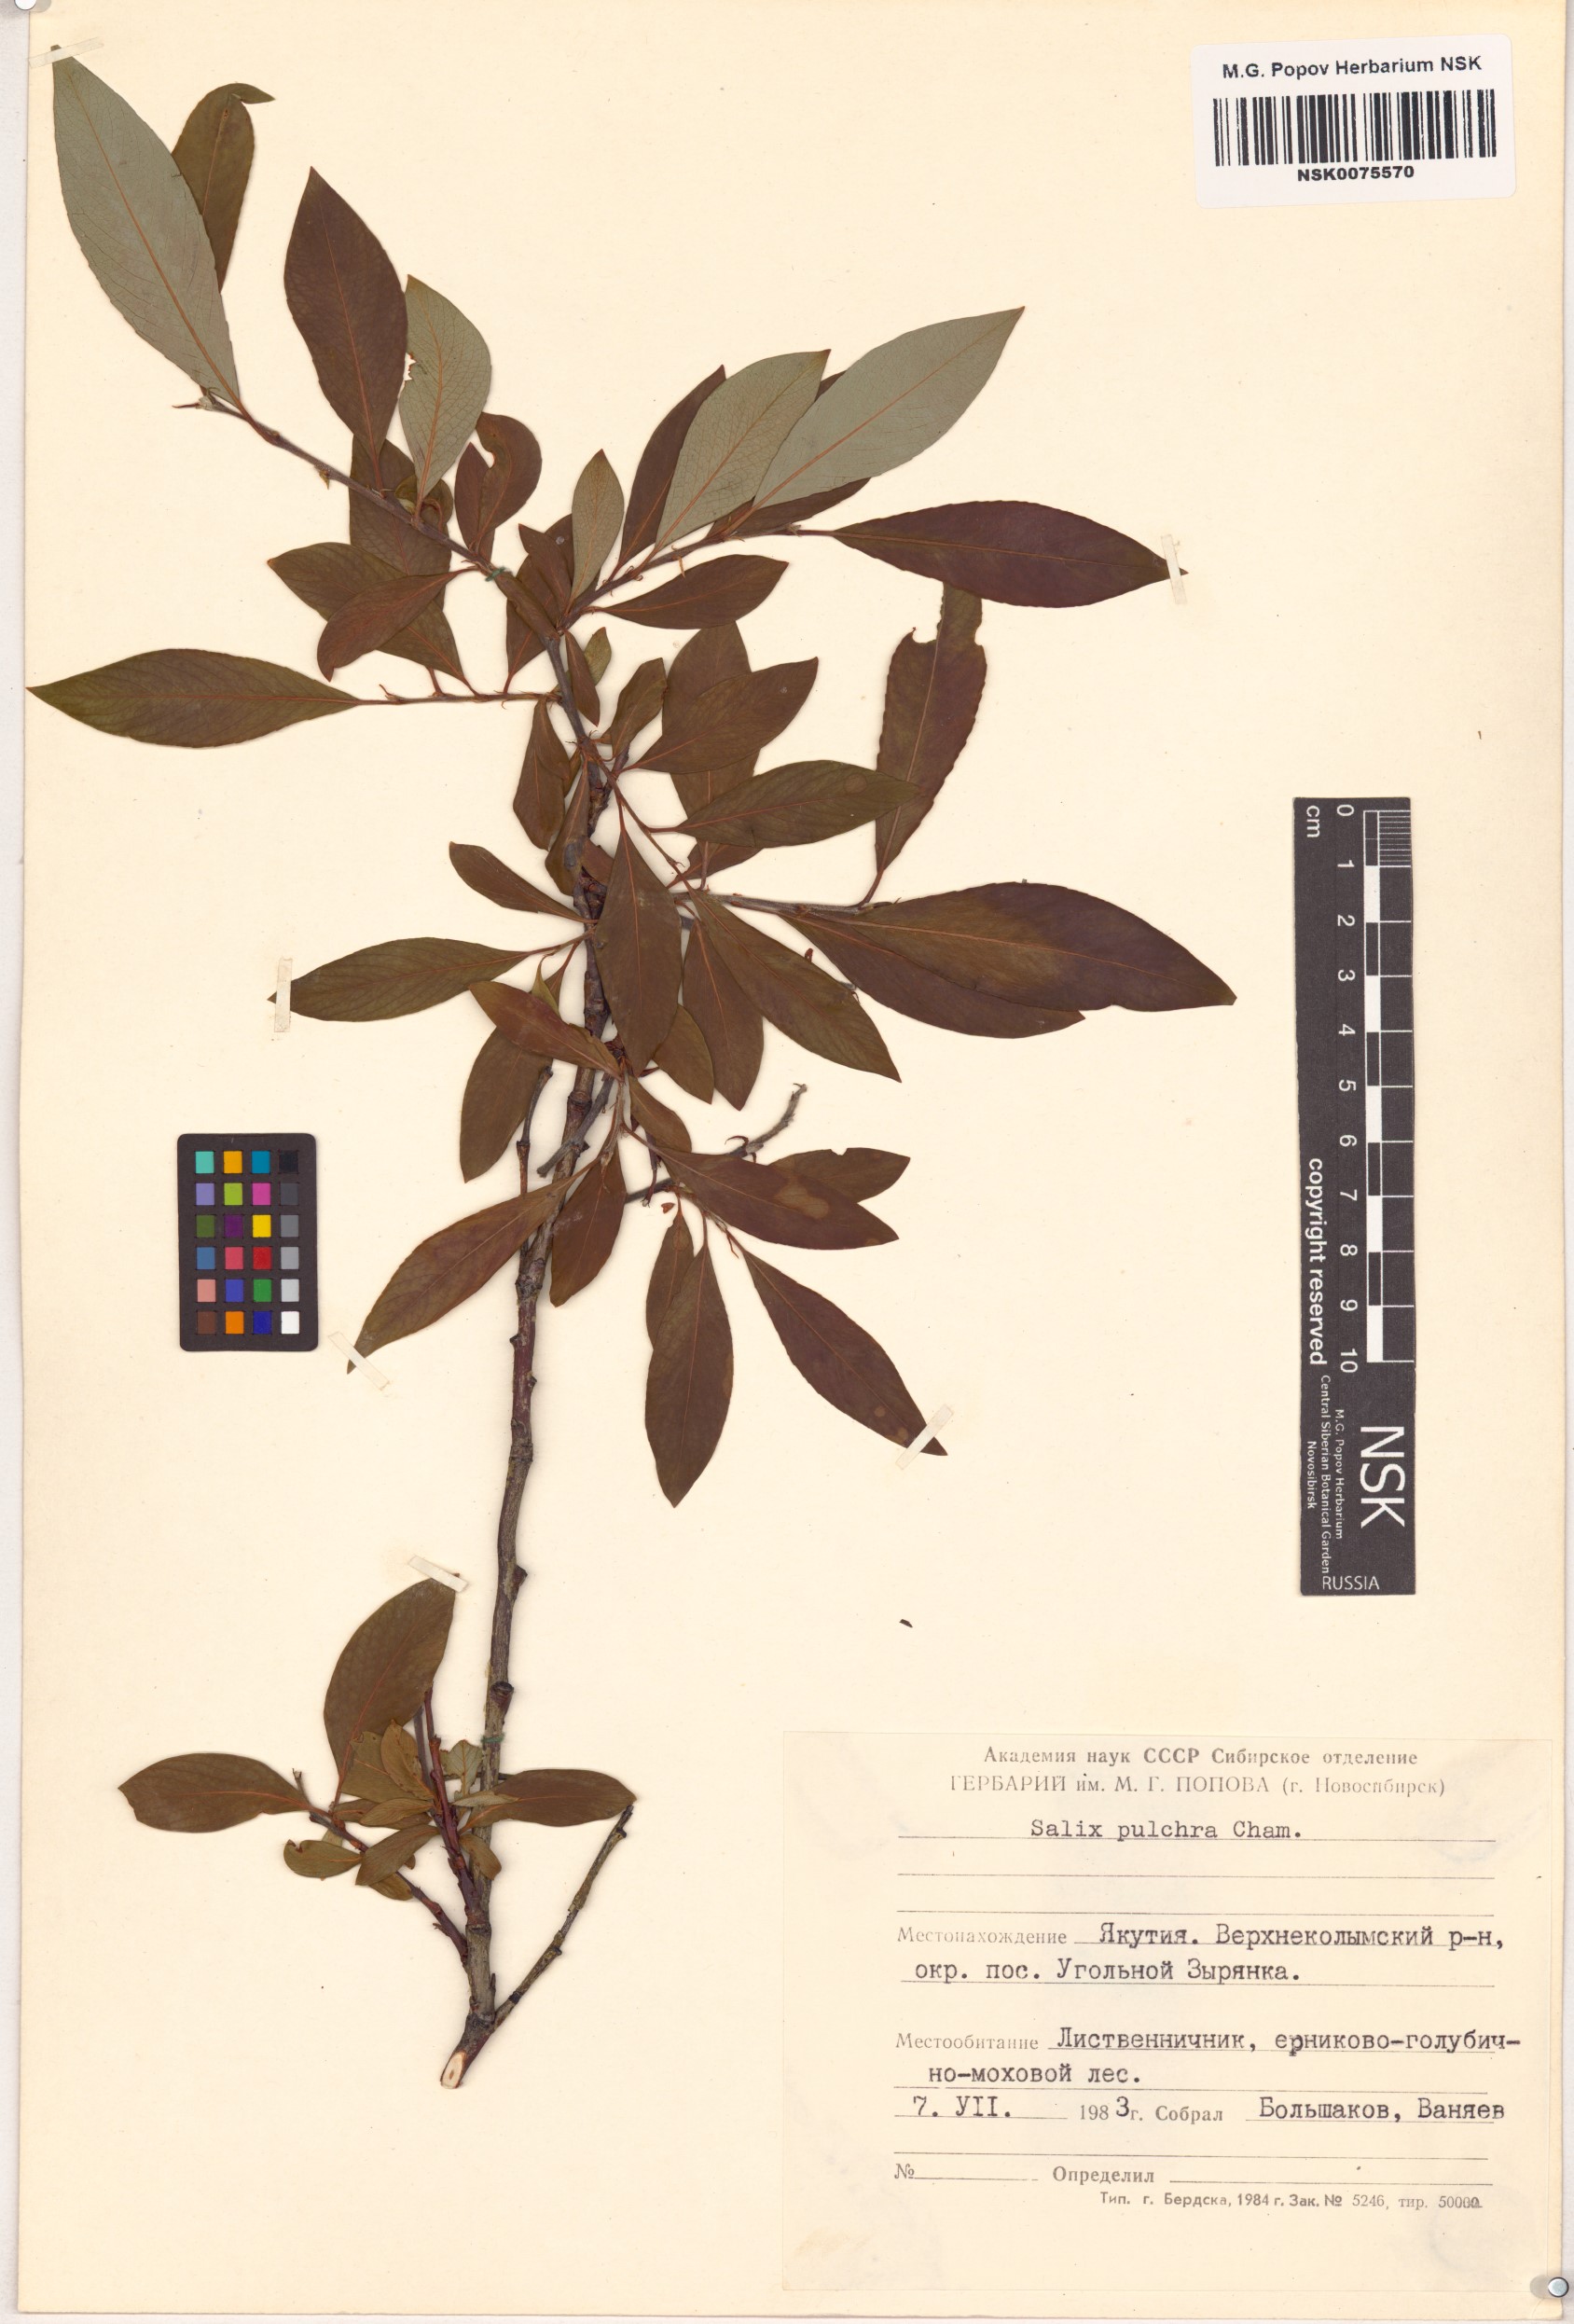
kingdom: Plantae
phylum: Tracheophyta
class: Magnoliopsida
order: Malpighiales
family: Salicaceae
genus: Salix
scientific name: Salix pulchra
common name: Diamond-leaved willow
